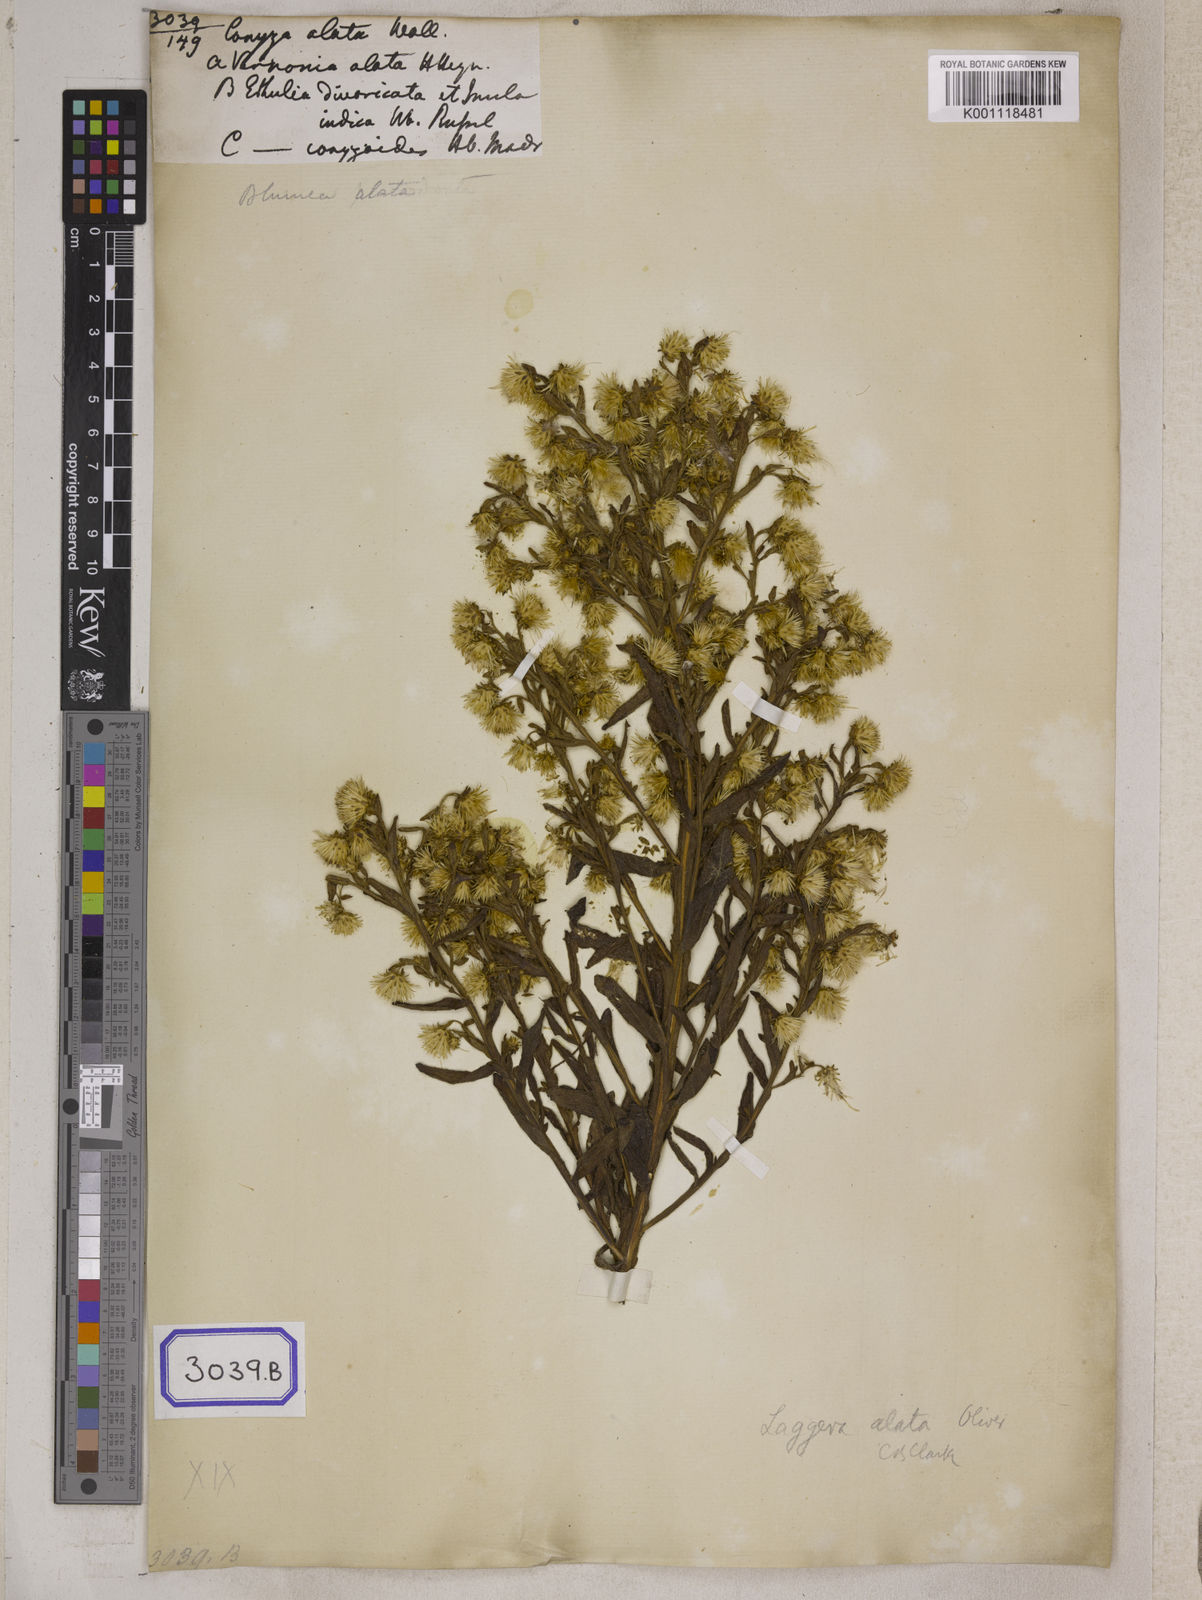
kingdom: Plantae
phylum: Tracheophyta
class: Magnoliopsida
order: Asterales
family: Asteraceae
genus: Conyza
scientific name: Conyza
